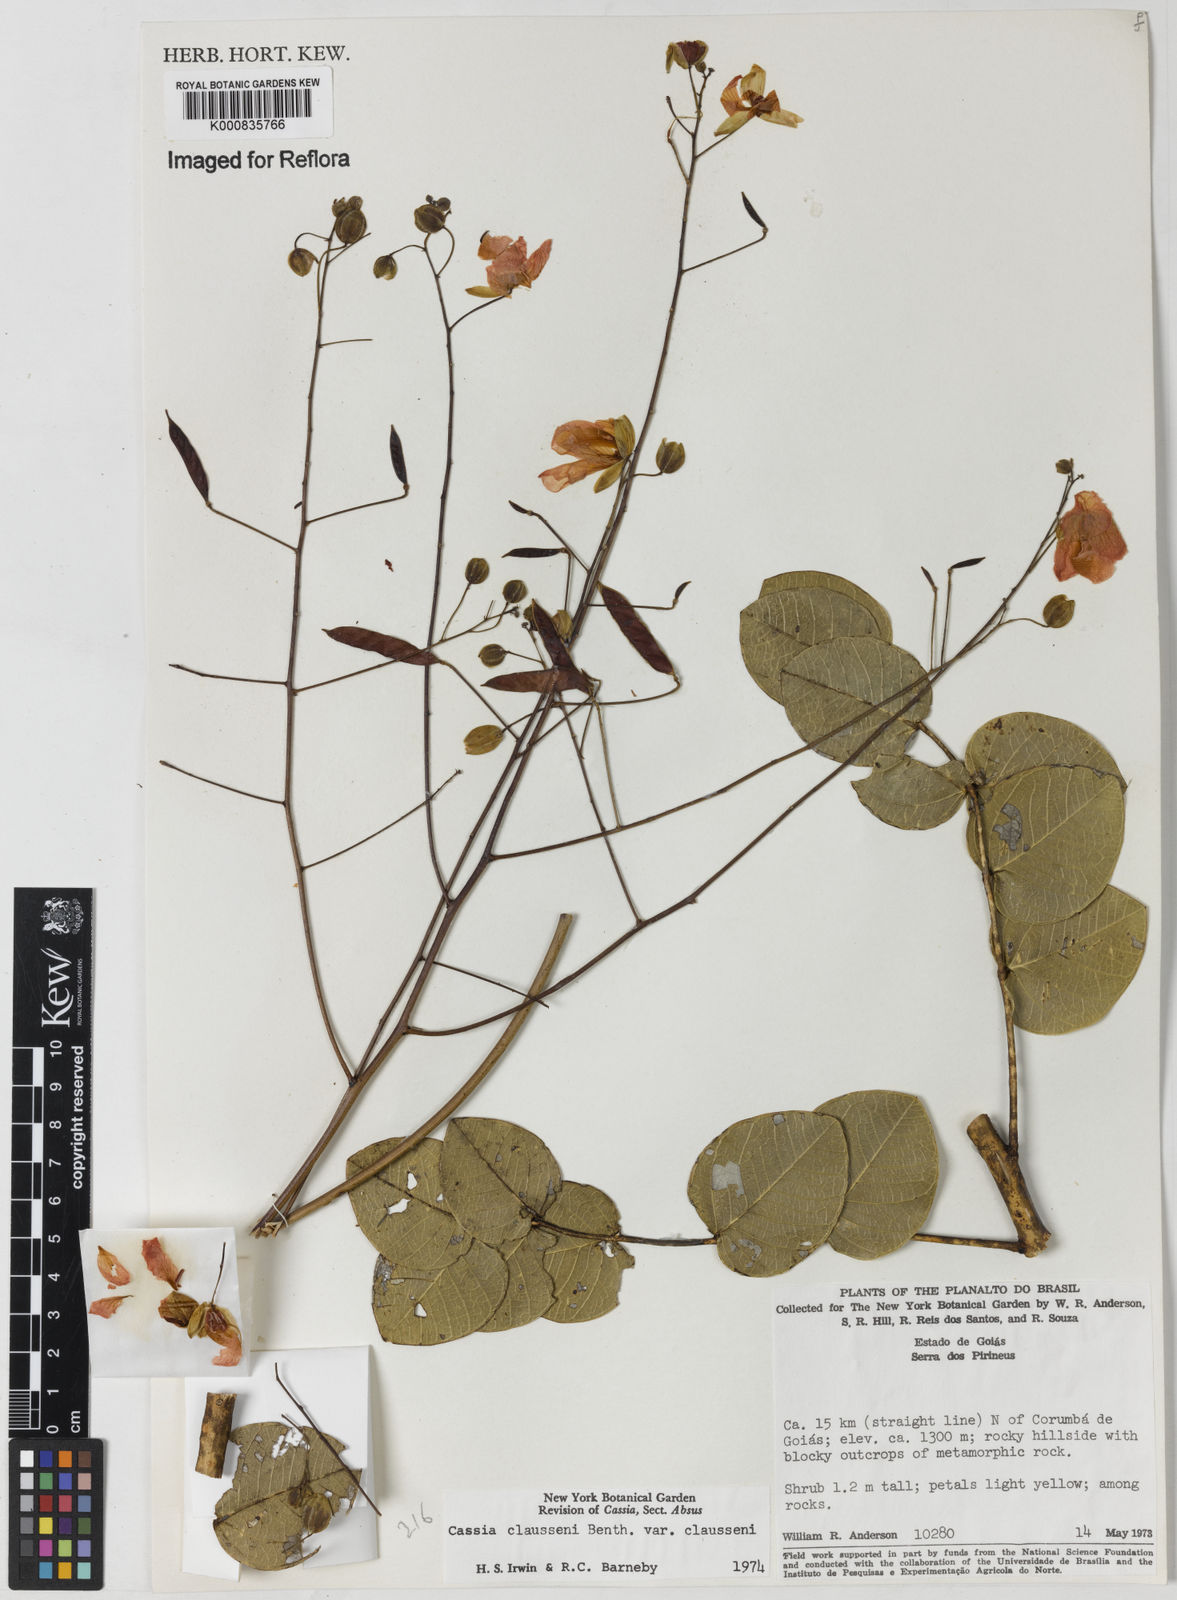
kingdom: Plantae
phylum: Tracheophyta
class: Magnoliopsida
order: Fabales
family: Fabaceae
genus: Chamaecrista
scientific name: Chamaecrista claussenii
